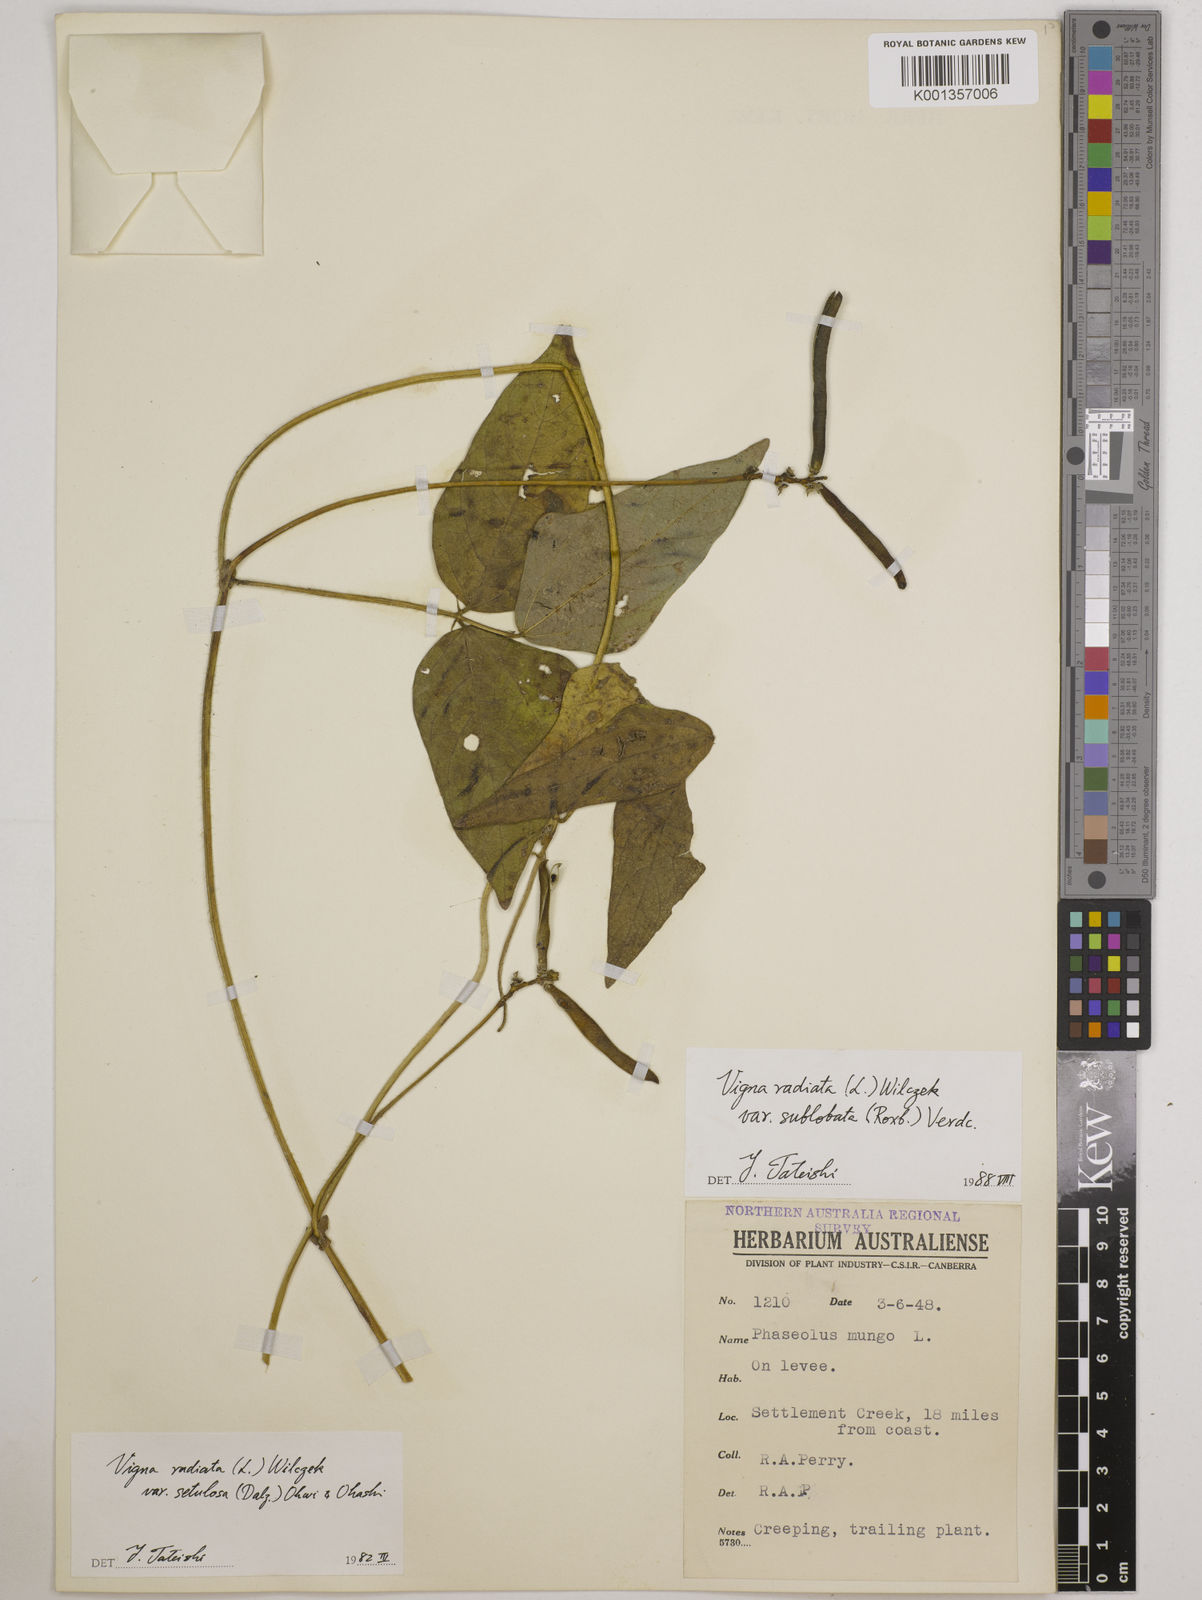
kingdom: Plantae
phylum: Tracheophyta
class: Magnoliopsida
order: Fabales
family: Fabaceae
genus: Vigna
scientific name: Vigna radiata
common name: Mung-bean
